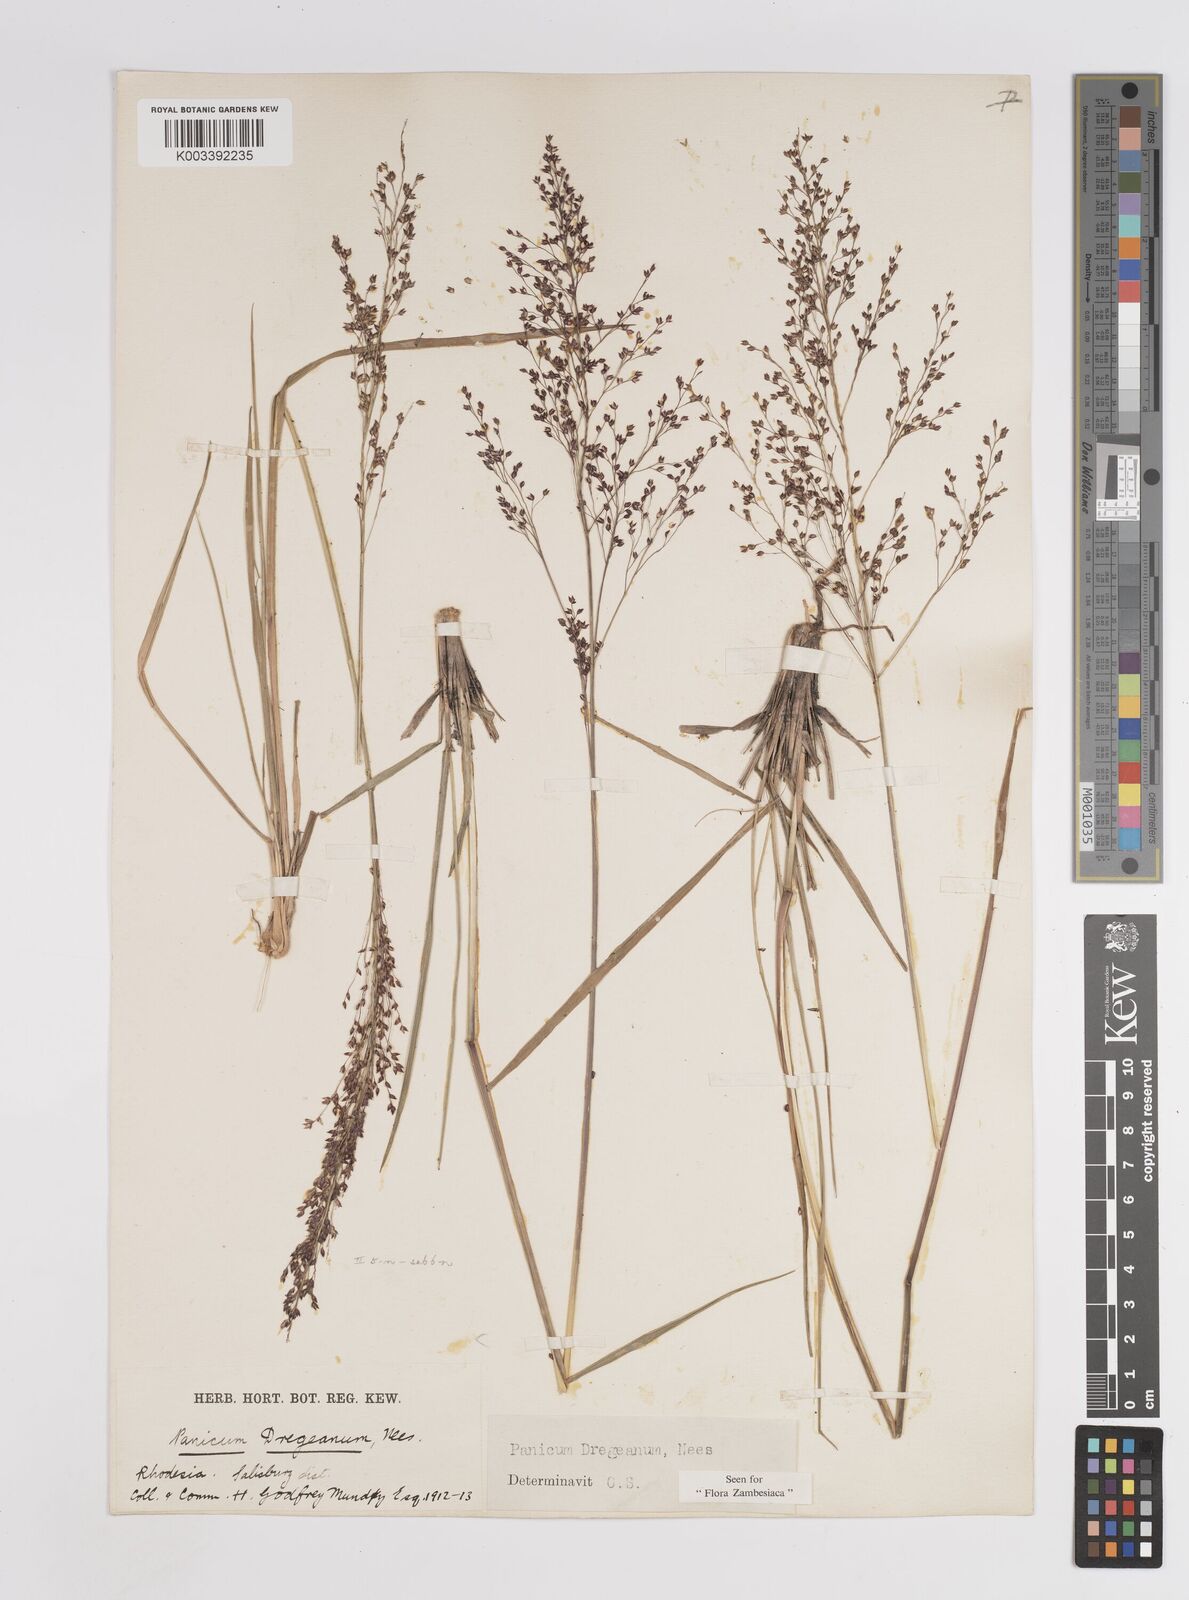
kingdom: Plantae
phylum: Tracheophyta
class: Liliopsida
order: Poales
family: Poaceae
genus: Panicum
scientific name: Panicum dregeanum
